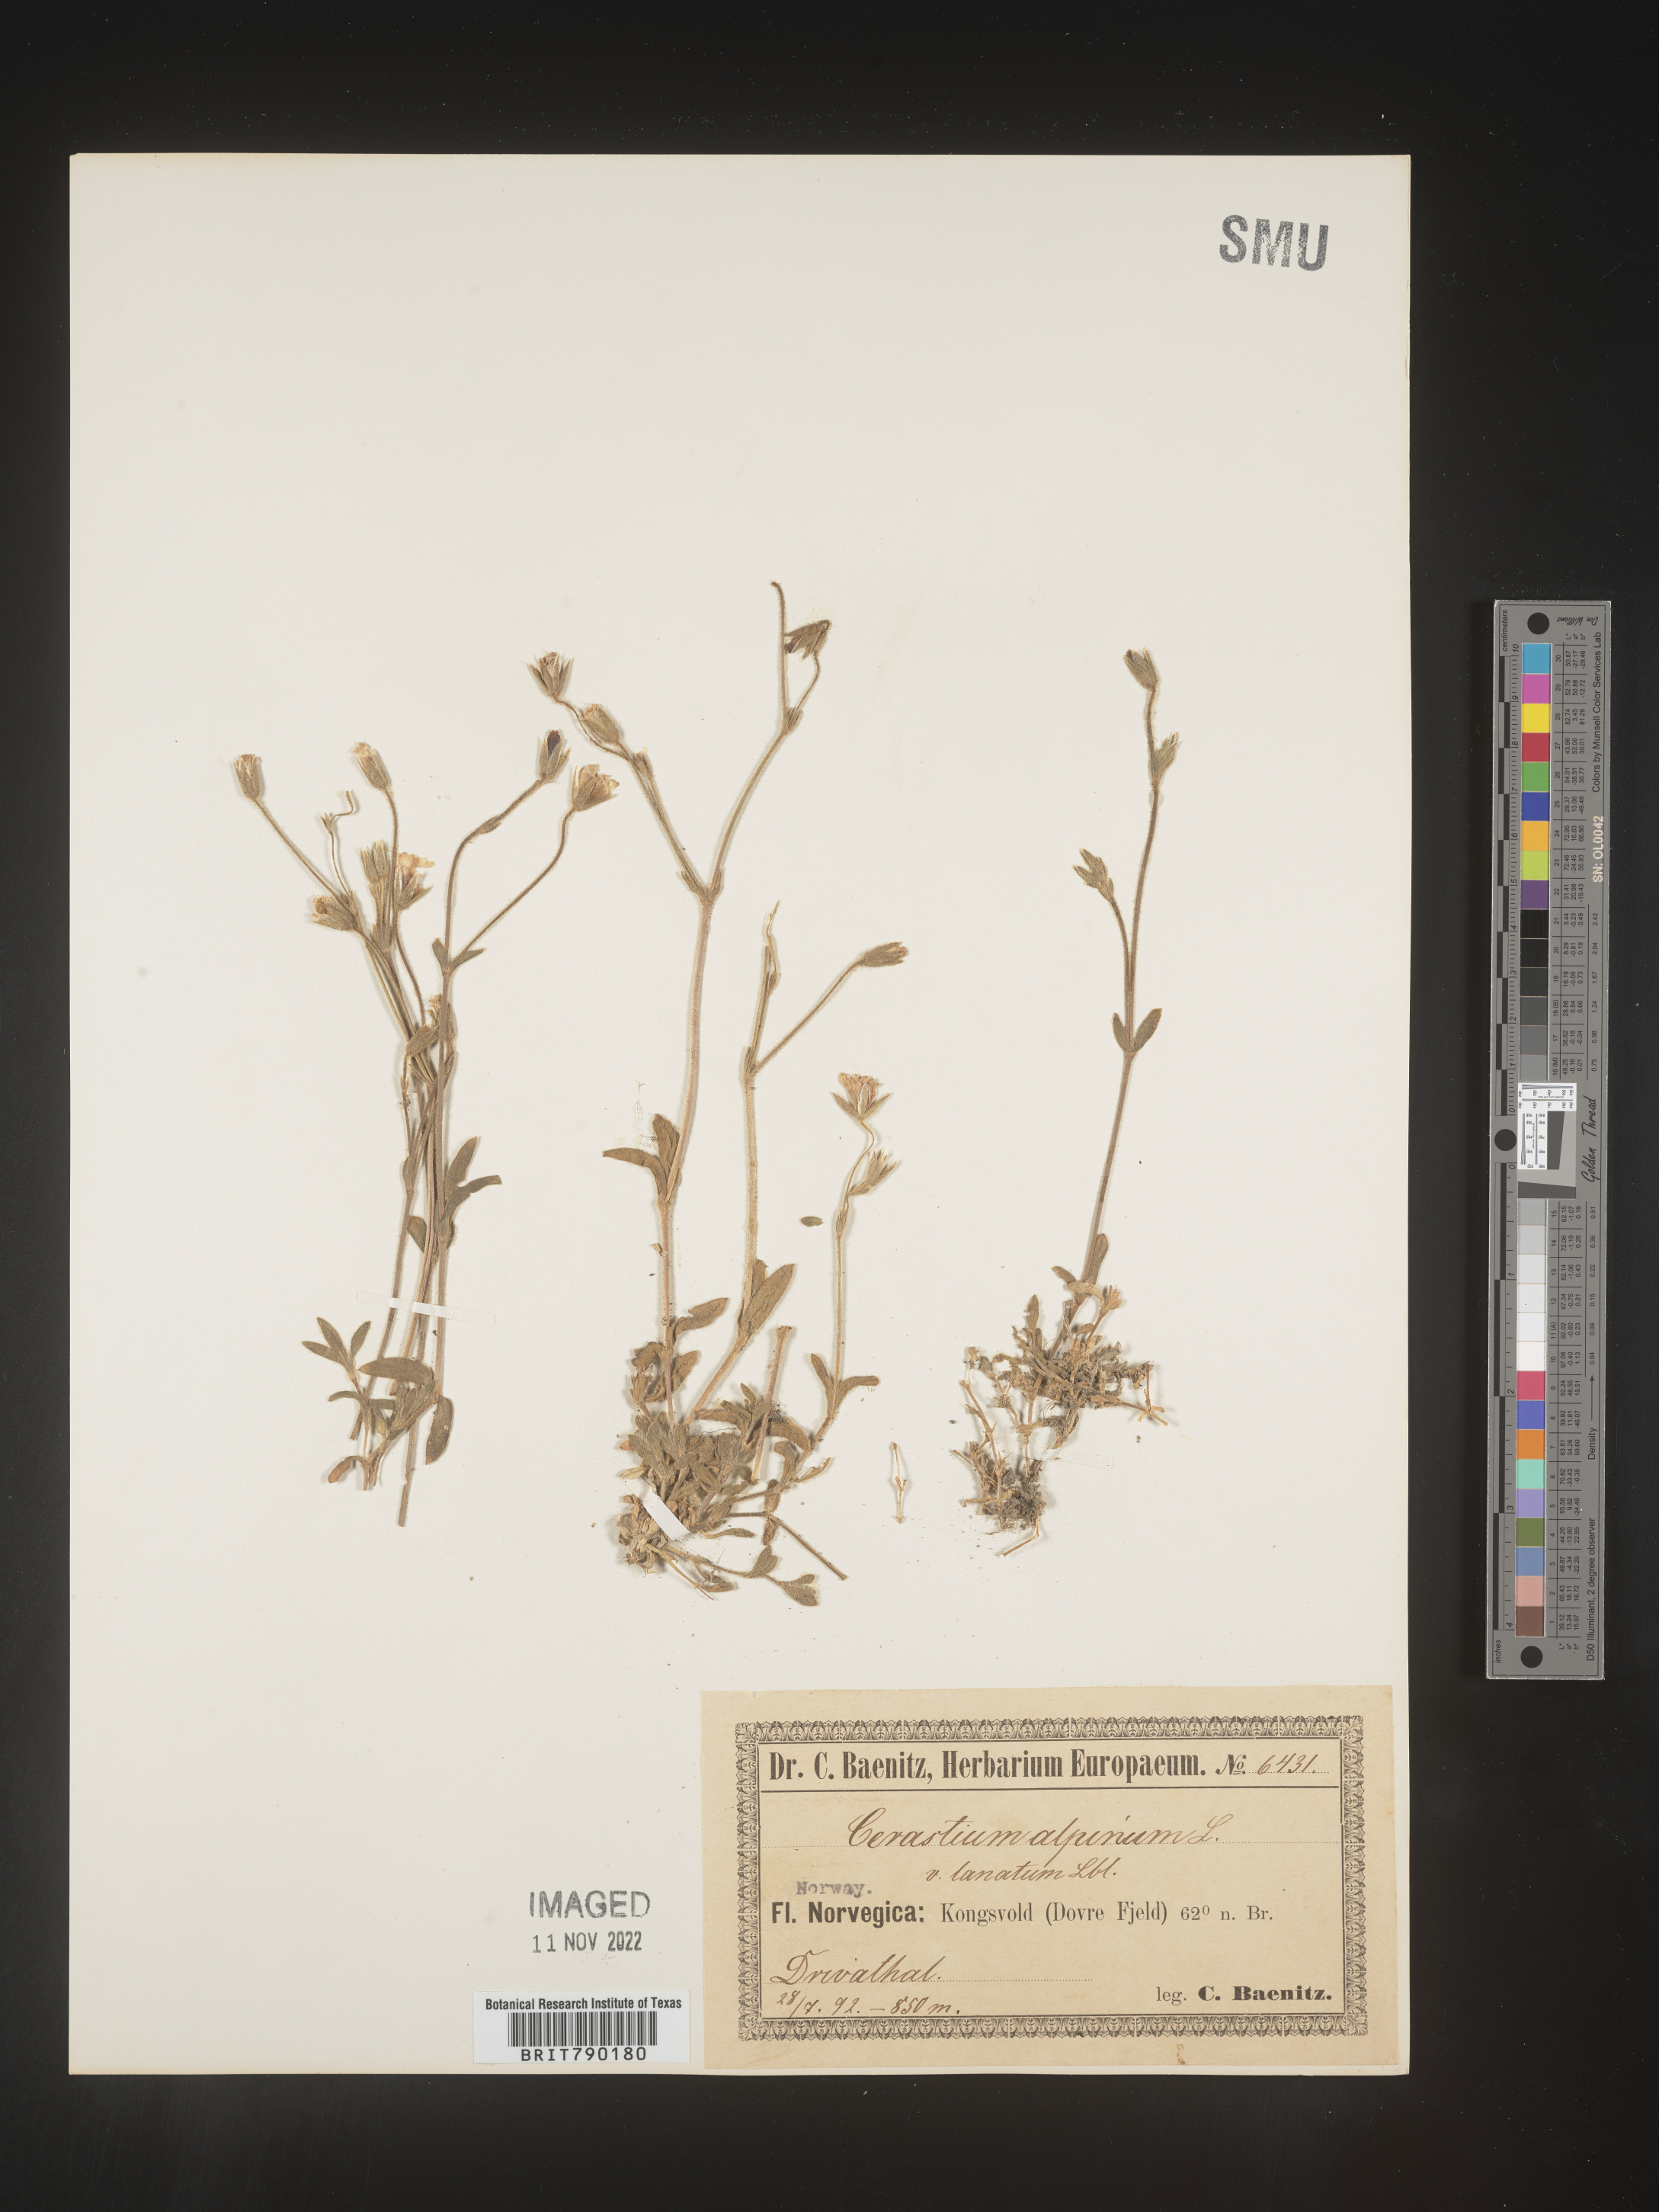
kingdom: Plantae
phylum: Tracheophyta
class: Magnoliopsida
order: Caryophyllales
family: Caryophyllaceae
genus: Cerastium
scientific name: Cerastium
